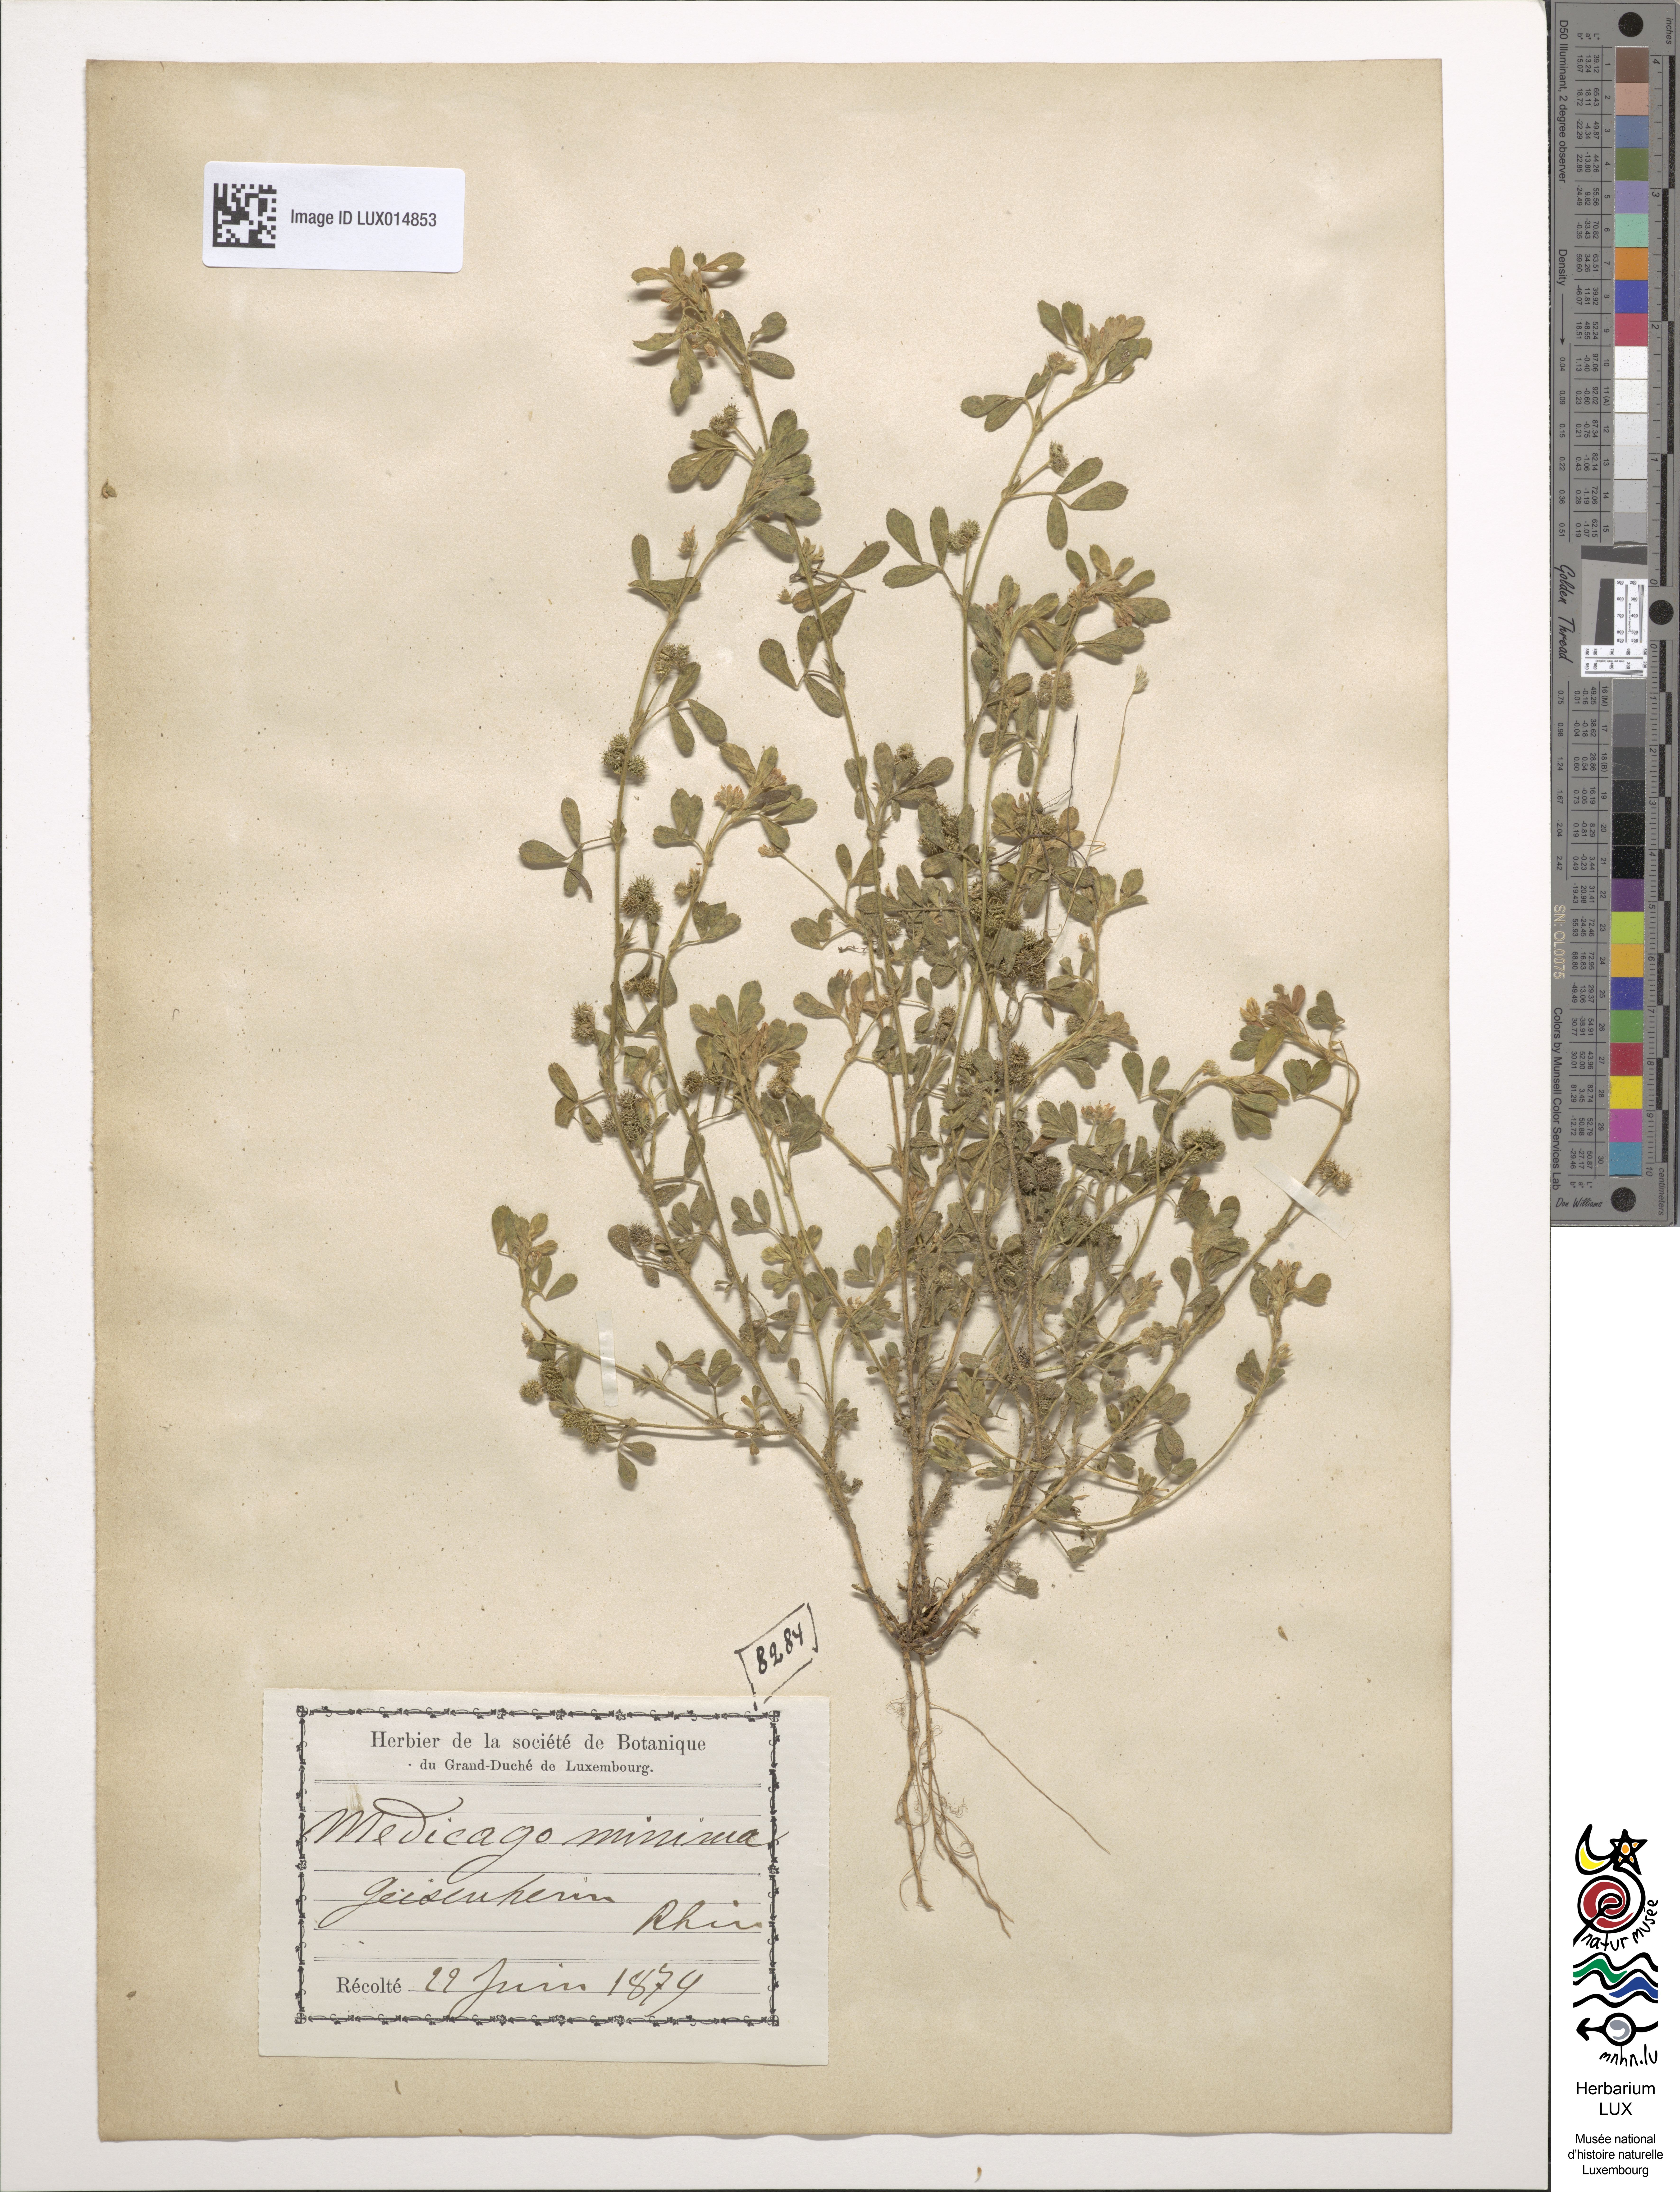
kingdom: Plantae
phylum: Tracheophyta
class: Magnoliopsida
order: Fabales
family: Fabaceae
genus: Medicago
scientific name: Medicago minima
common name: Little bur-clover
